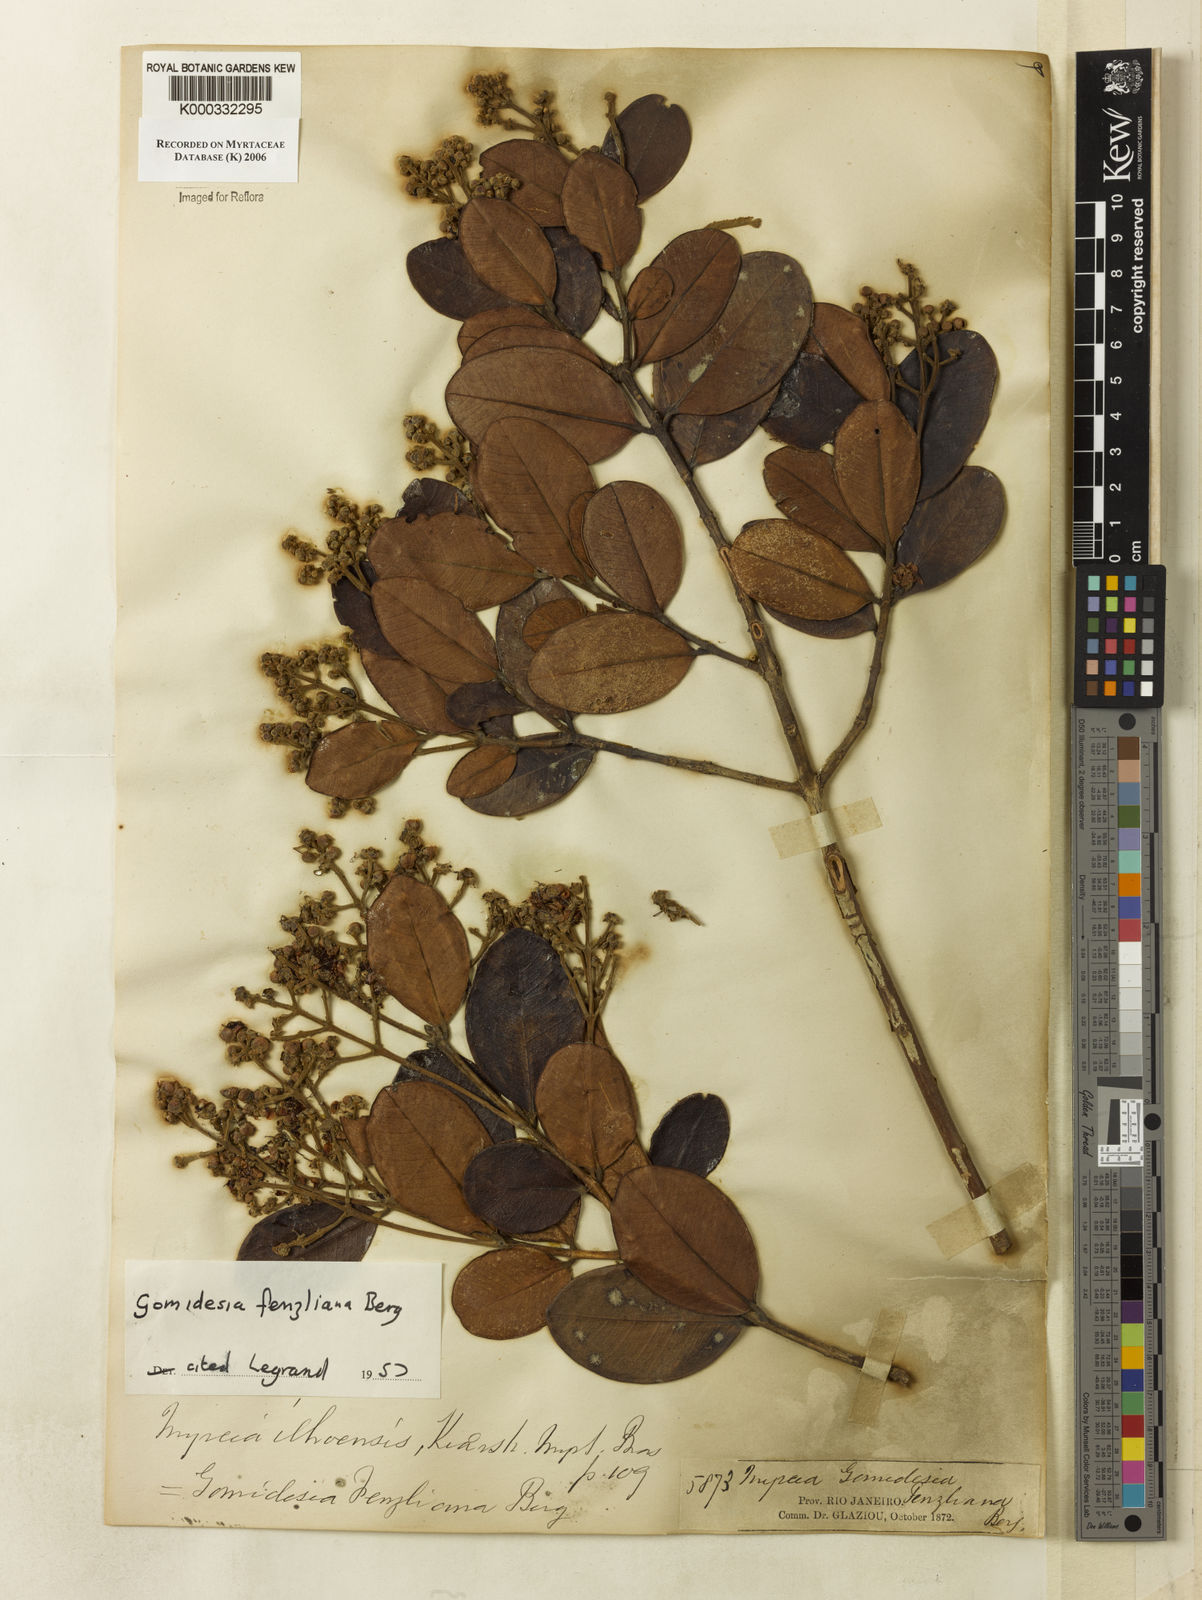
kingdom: Plantae
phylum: Tracheophyta
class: Magnoliopsida
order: Myrtales
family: Myrtaceae
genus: Myrcia
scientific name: Myrcia ilheosensis
